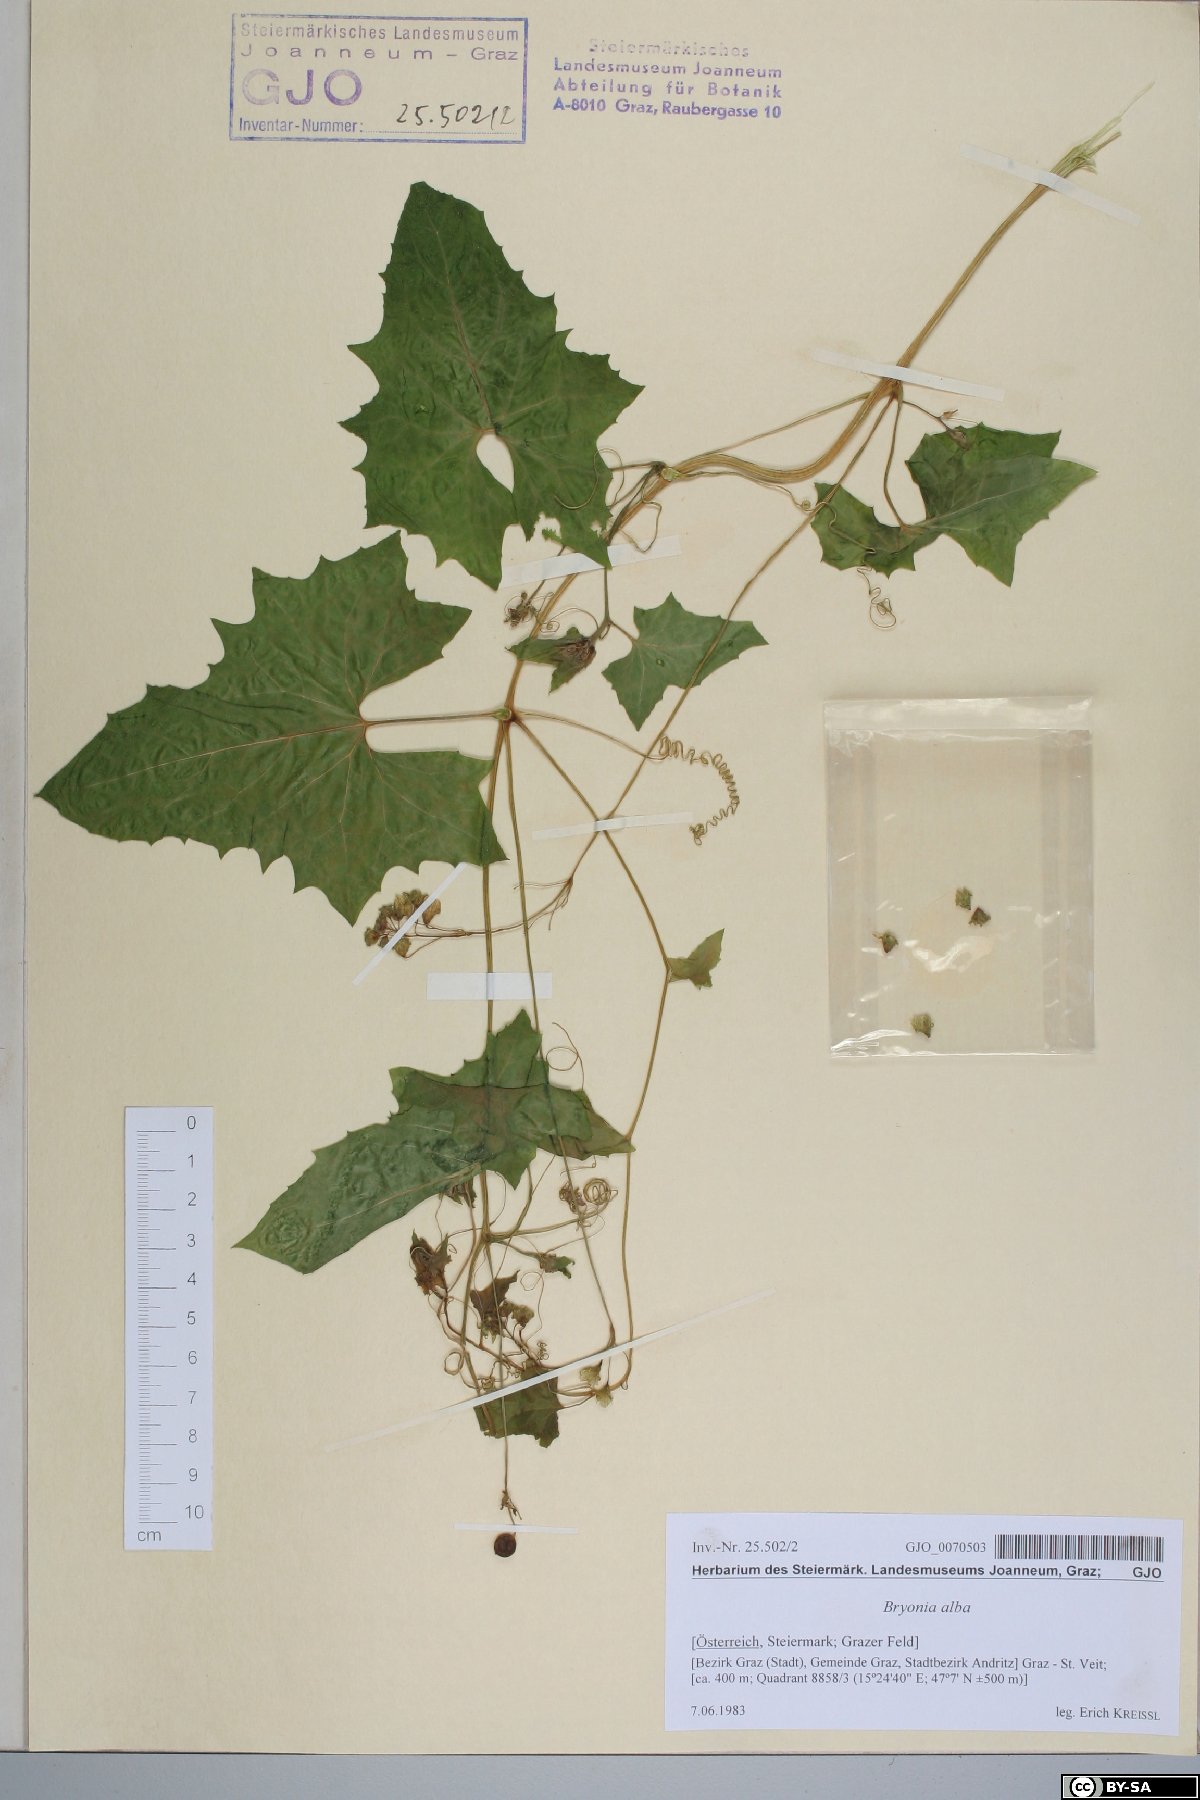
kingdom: Plantae
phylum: Tracheophyta
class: Magnoliopsida
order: Cucurbitales
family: Cucurbitaceae
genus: Bryonia
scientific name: Bryonia alba
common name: White bryony
